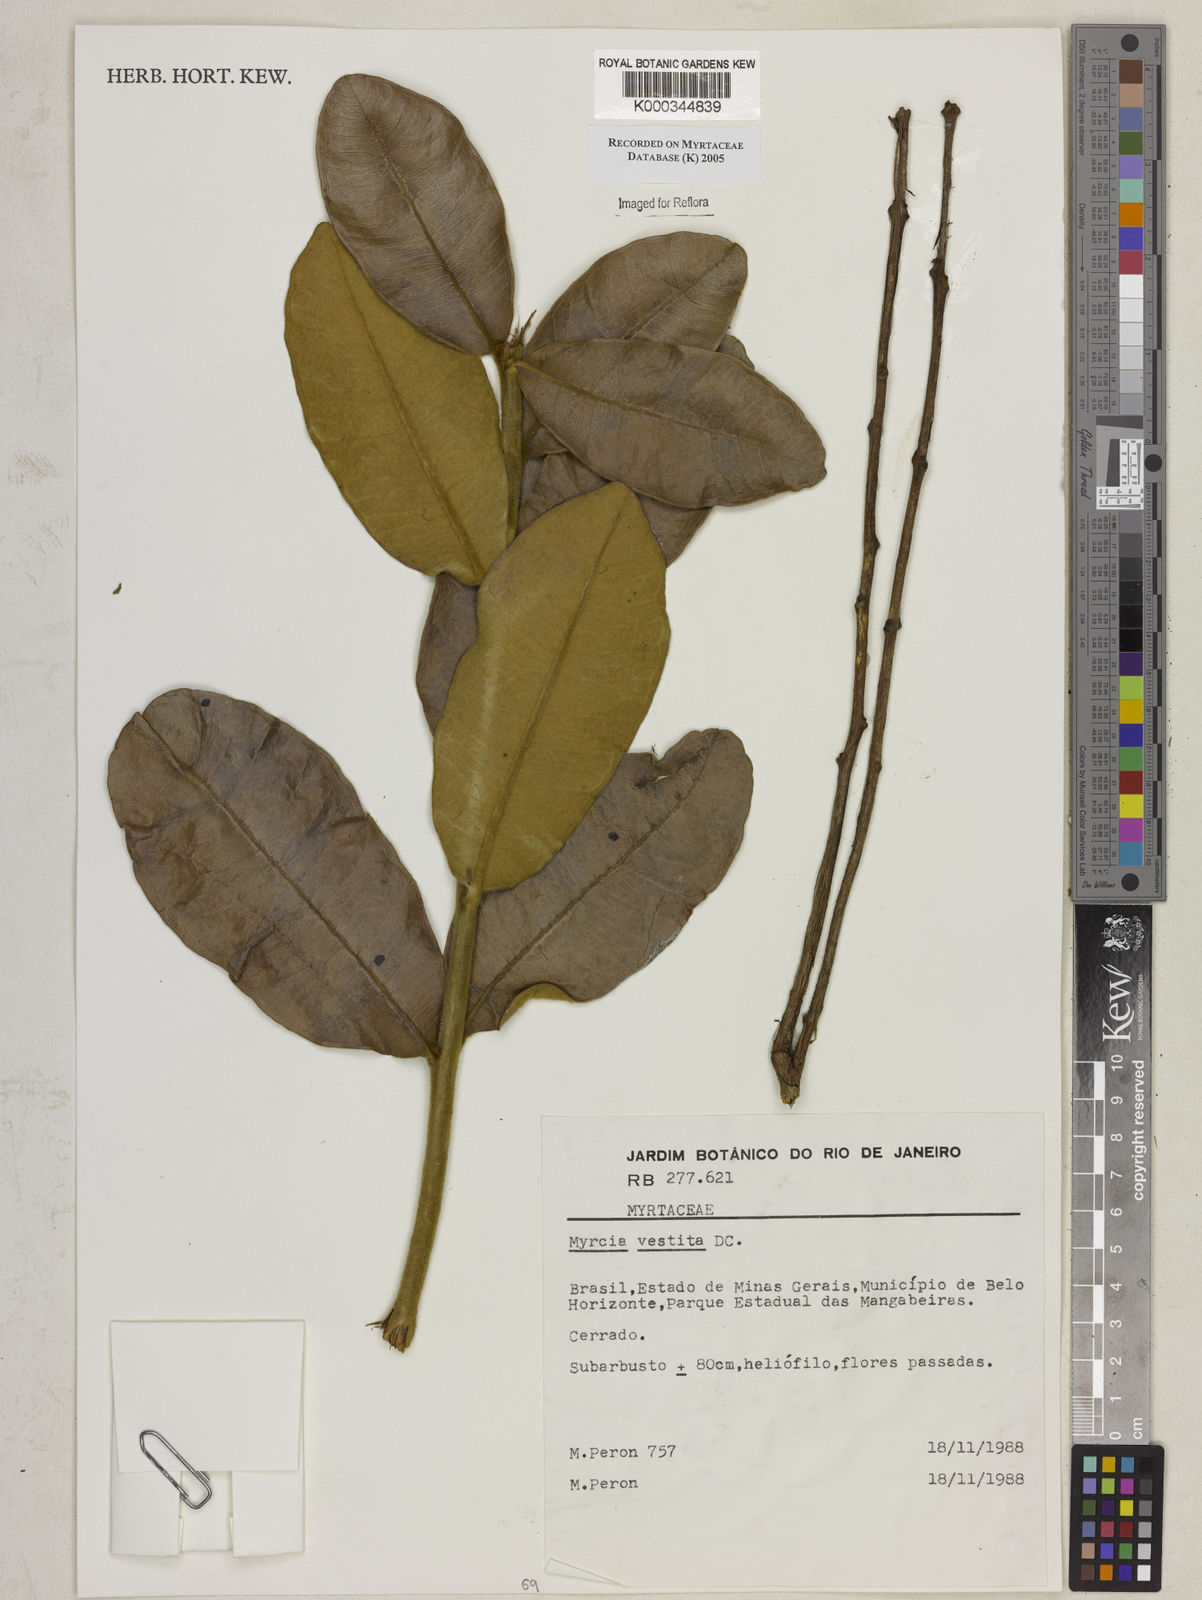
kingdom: Plantae
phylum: Tracheophyta
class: Magnoliopsida
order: Myrtales
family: Myrtaceae
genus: Myrcia
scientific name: Myrcia vestita
